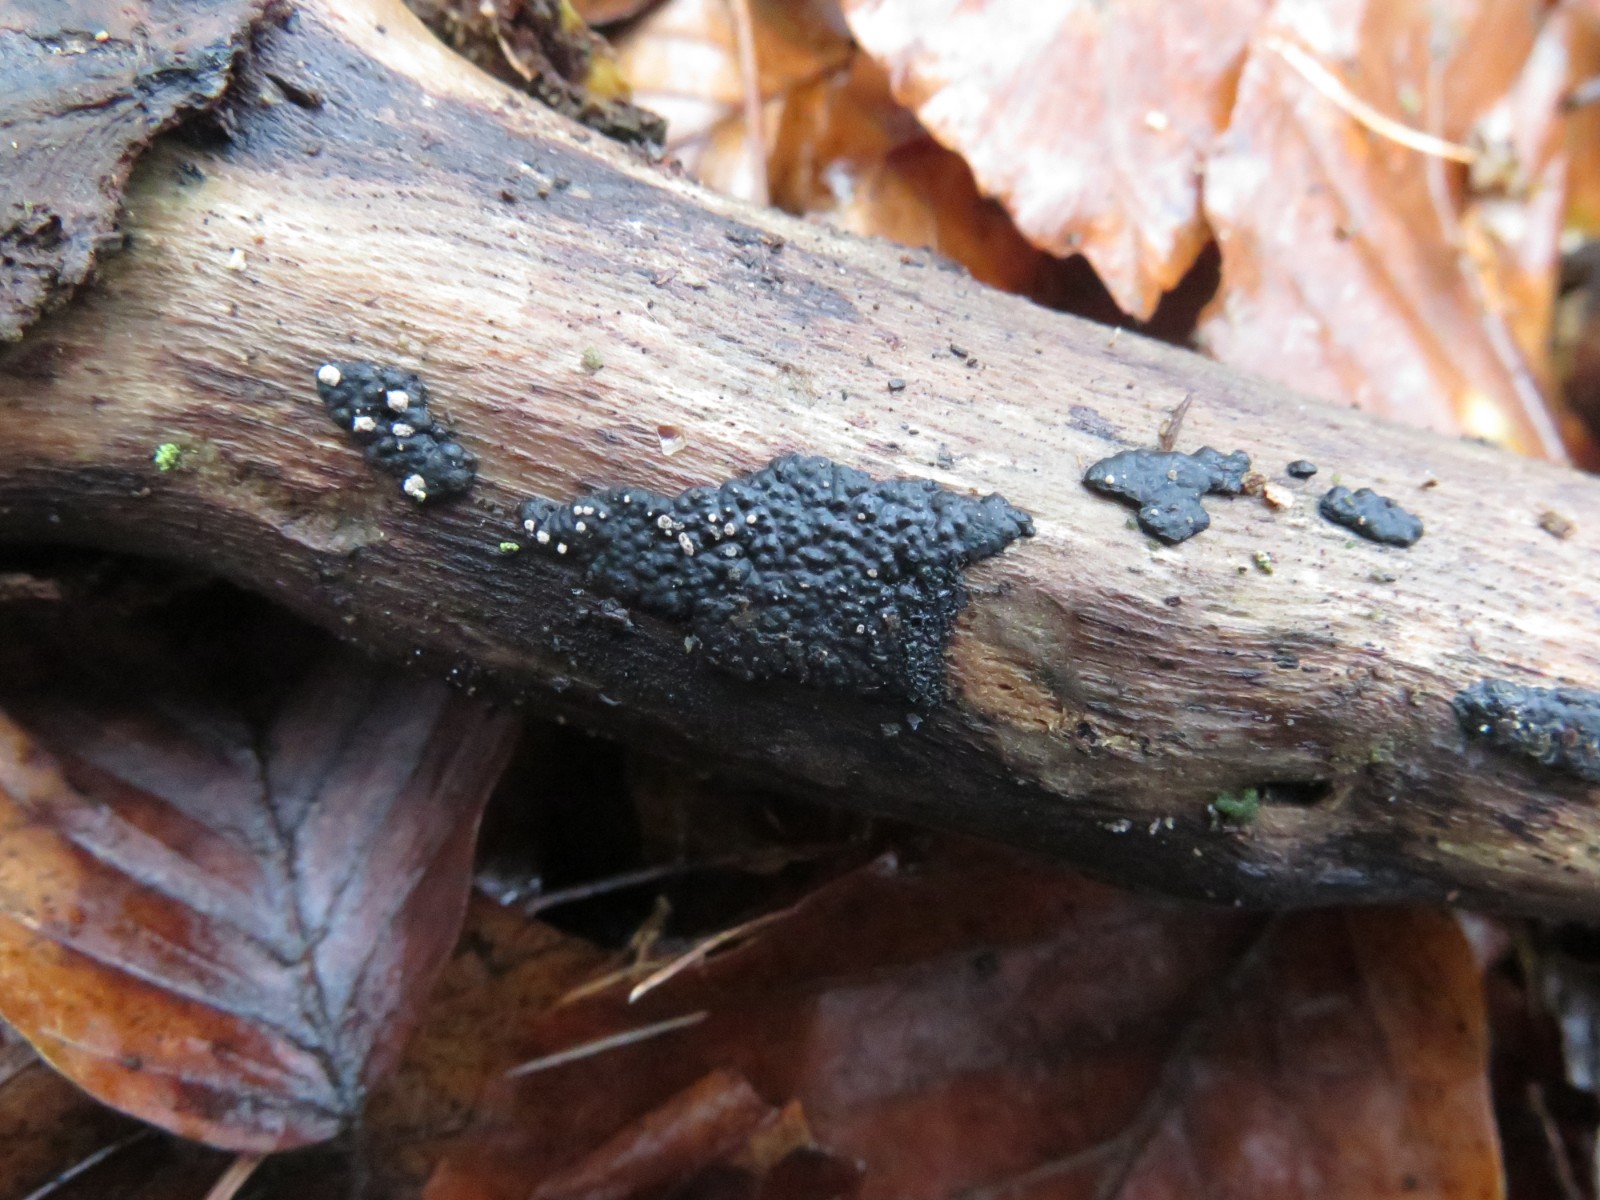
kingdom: Fungi
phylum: Ascomycota
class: Sordariomycetes
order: Xylariales
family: Xylariaceae
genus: Nemania
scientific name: Nemania serpens
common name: almindelig kuldyne
